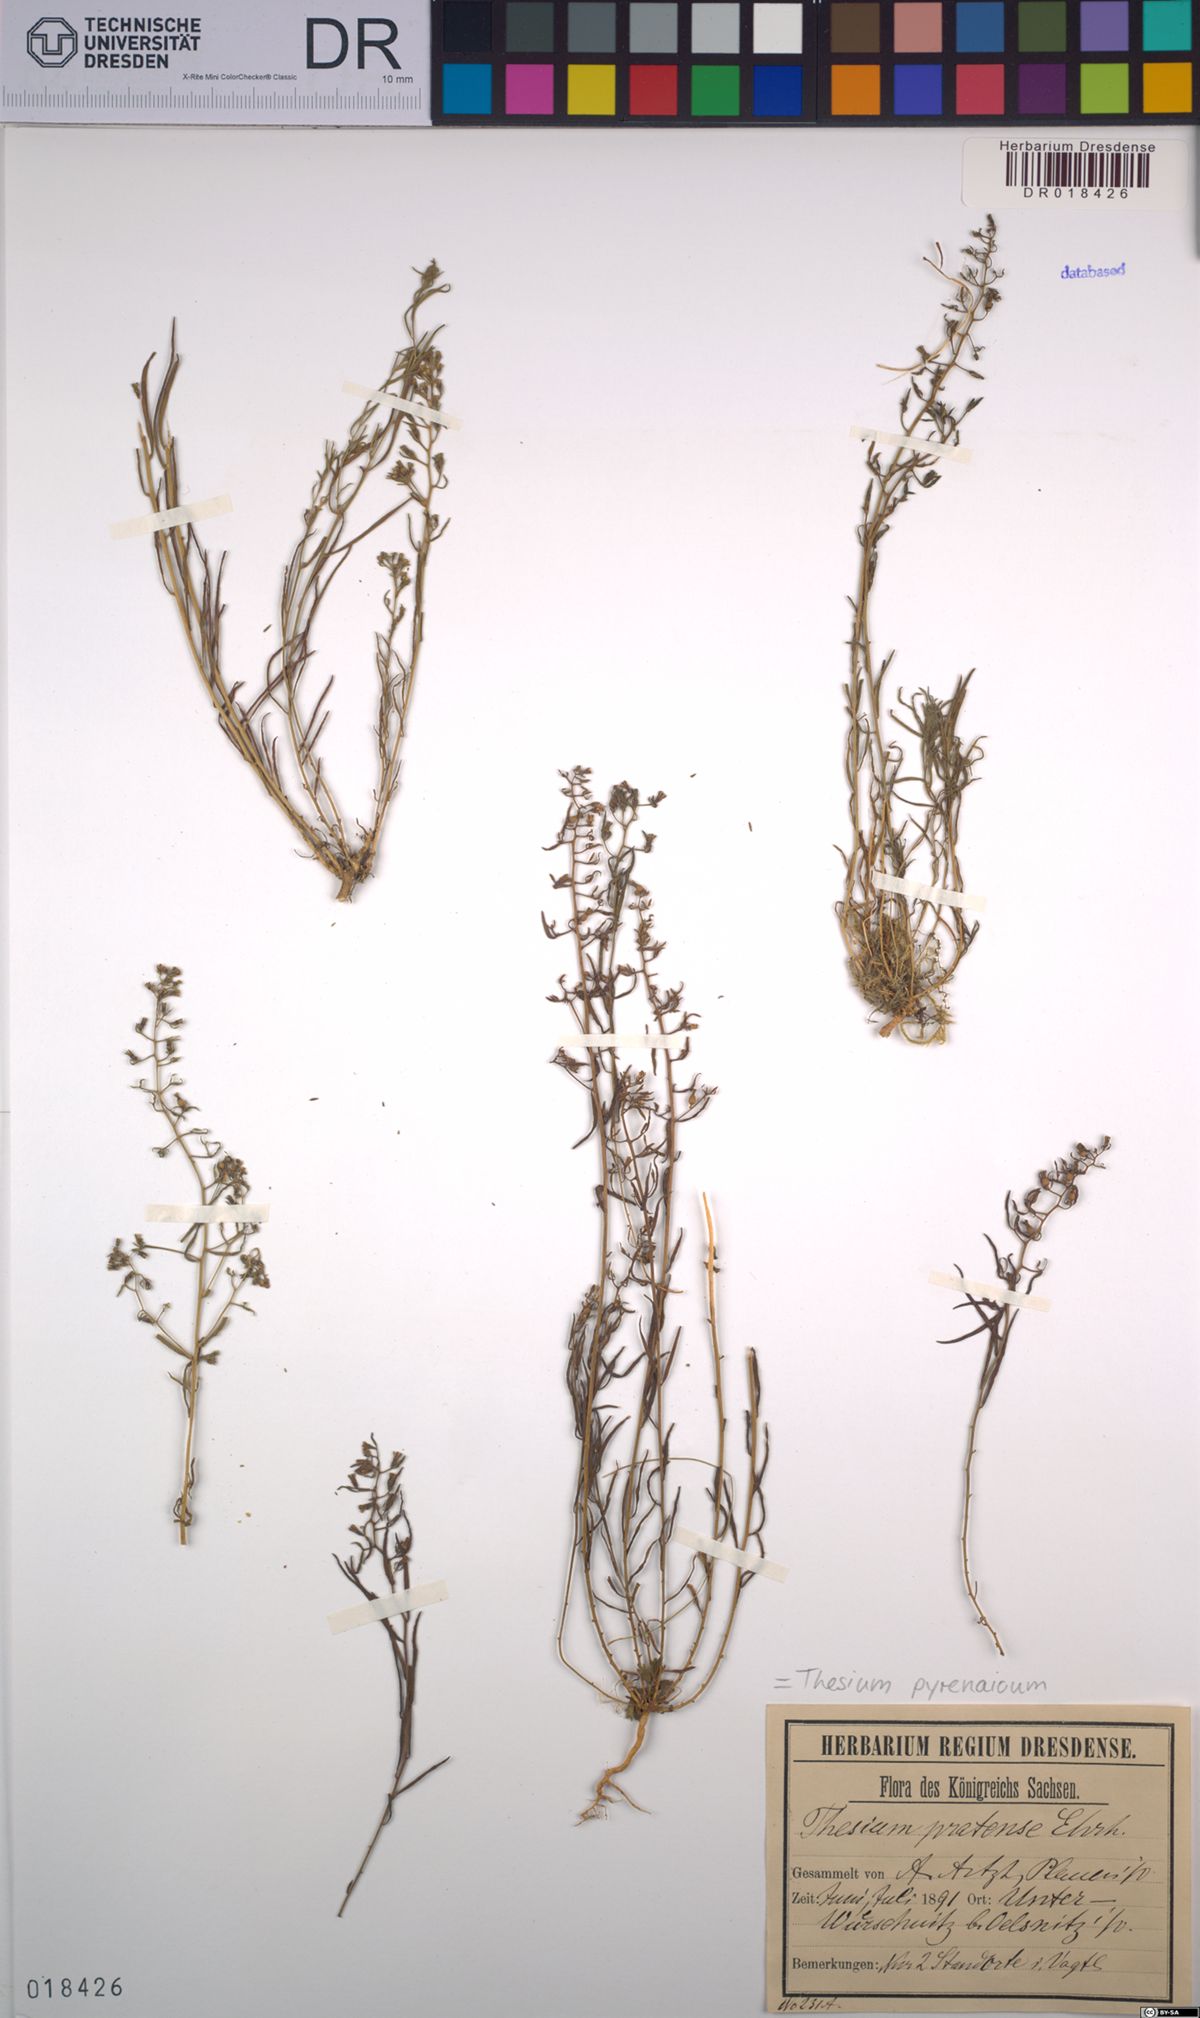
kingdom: Plantae
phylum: Tracheophyta
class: Magnoliopsida
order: Santalales
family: Thesiaceae
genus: Thesium
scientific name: Thesium pyrenaicum
